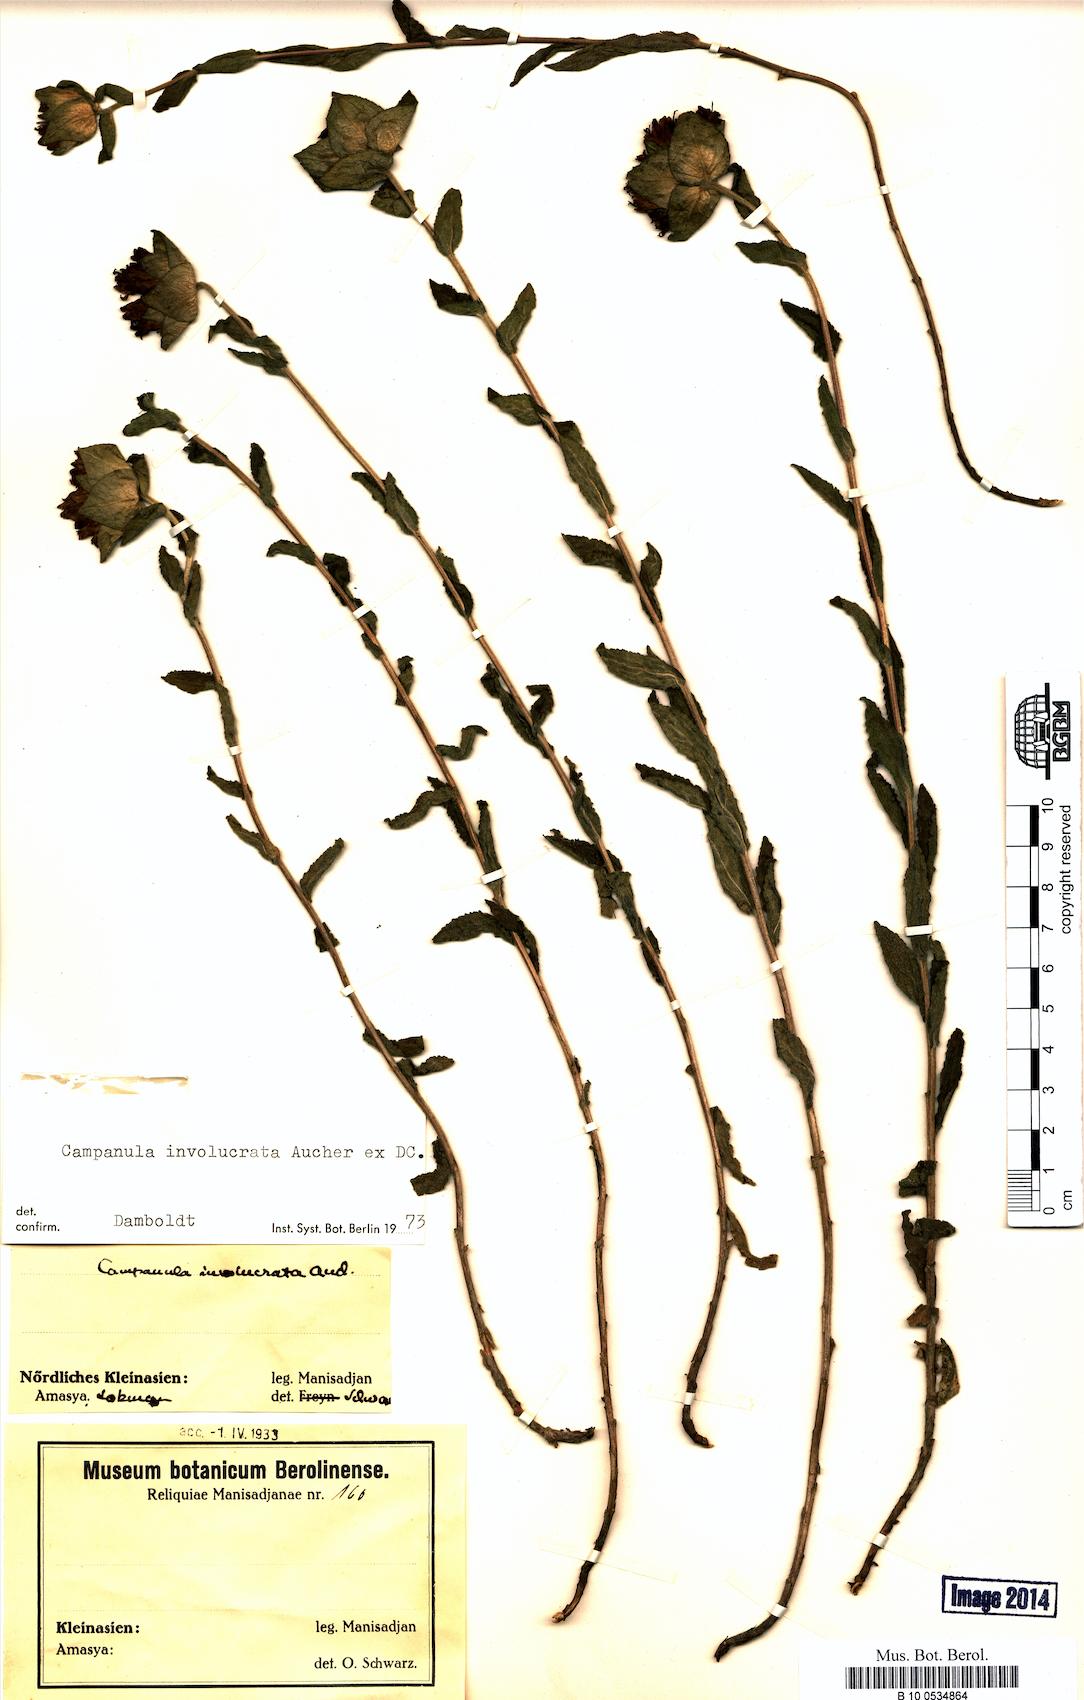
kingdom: Plantae
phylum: Tracheophyta
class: Magnoliopsida
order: Asterales
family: Campanulaceae
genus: Campanula
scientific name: Campanula involucrata
